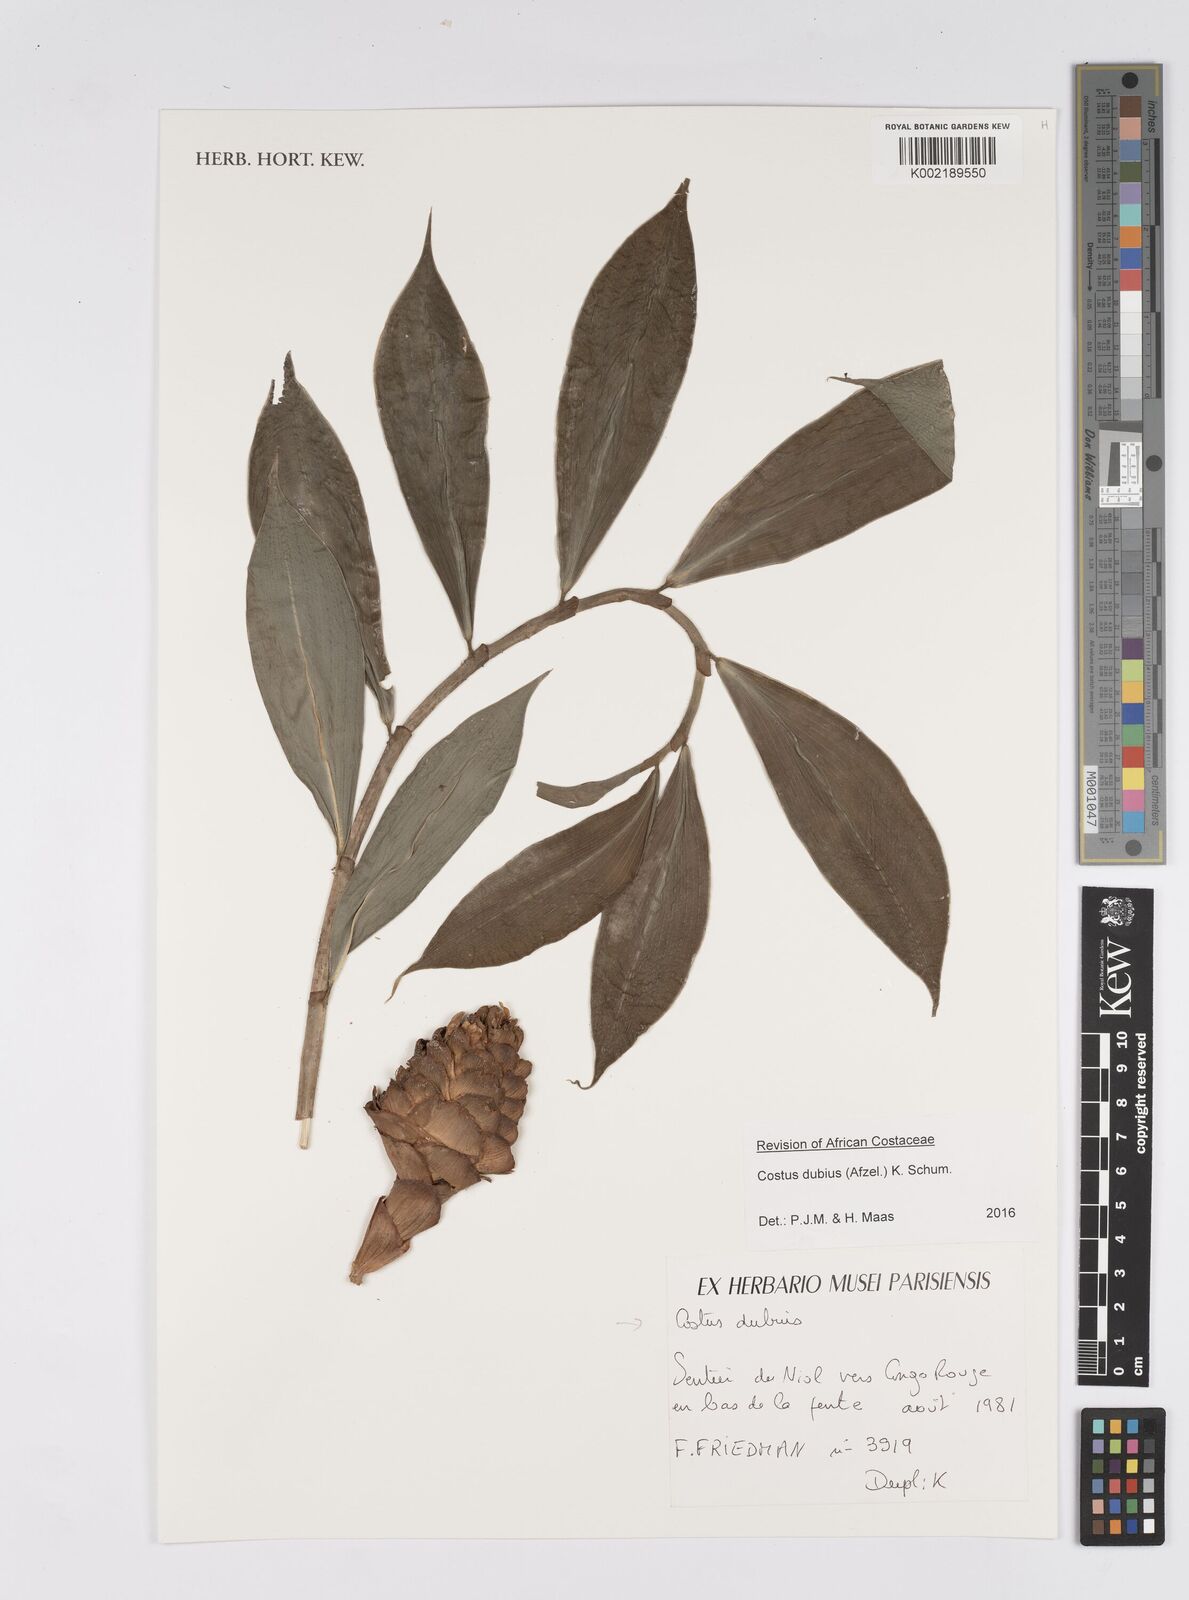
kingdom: Plantae
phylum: Tracheophyta
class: Liliopsida
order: Zingiberales
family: Costaceae
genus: Costus
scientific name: Costus dubius
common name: Costus
